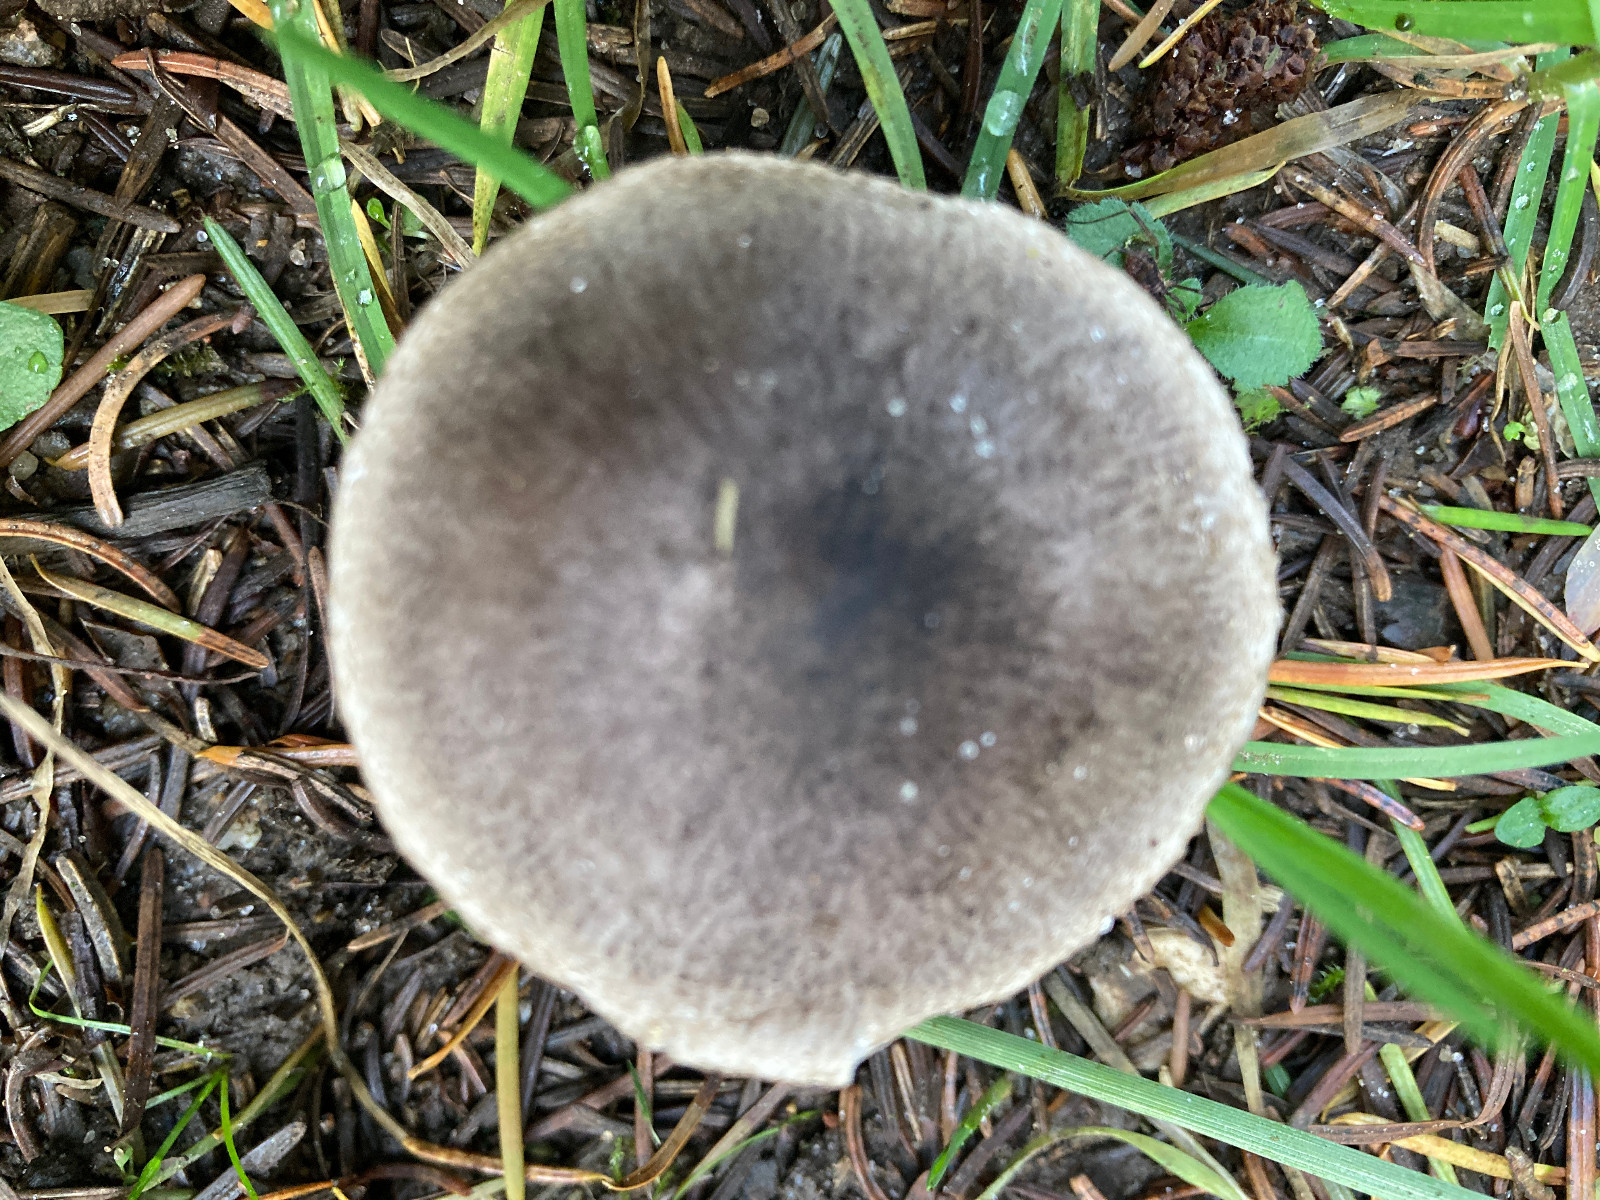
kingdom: Fungi
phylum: Basidiomycota
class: Agaricomycetes
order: Agaricales
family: Tricholomataceae
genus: Tricholoma
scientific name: Tricholoma terreum
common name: jordfarvet ridderhat
